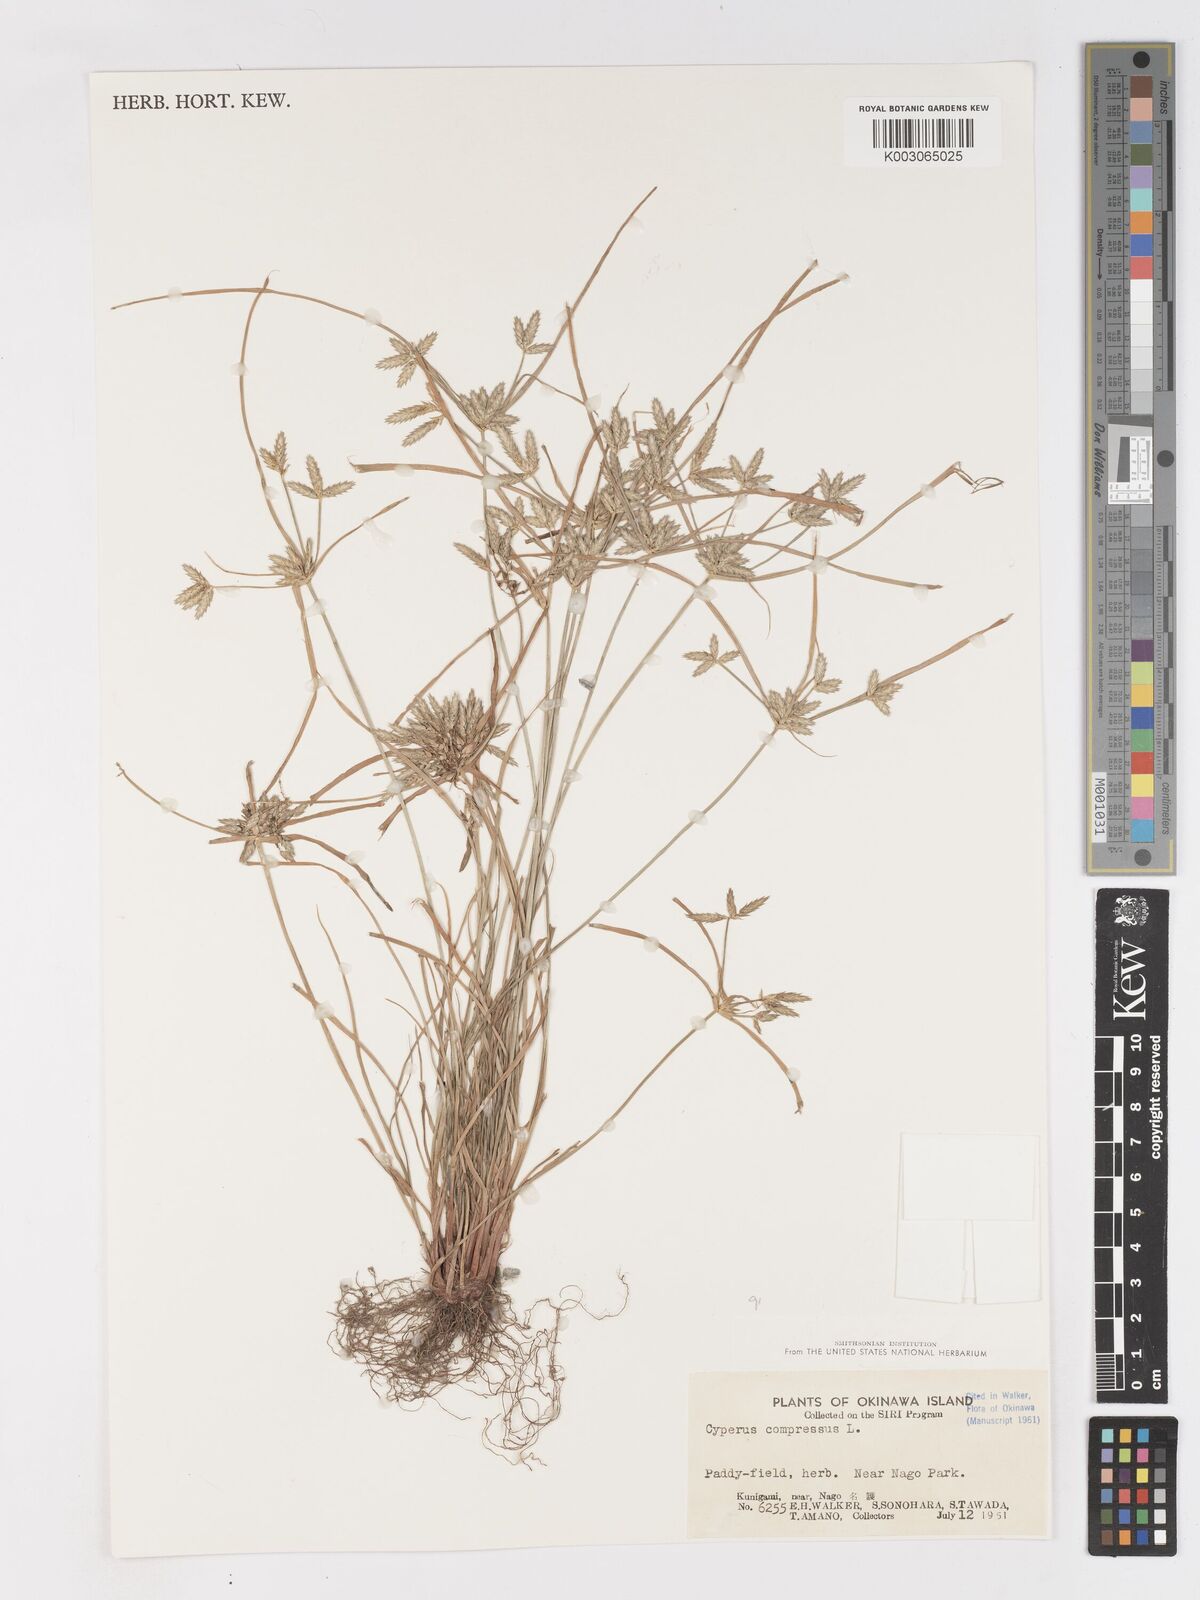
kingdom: Plantae
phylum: Tracheophyta
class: Liliopsida
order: Poales
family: Cyperaceae
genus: Cyperus
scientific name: Cyperus compressus
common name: Poorland flatsedge
